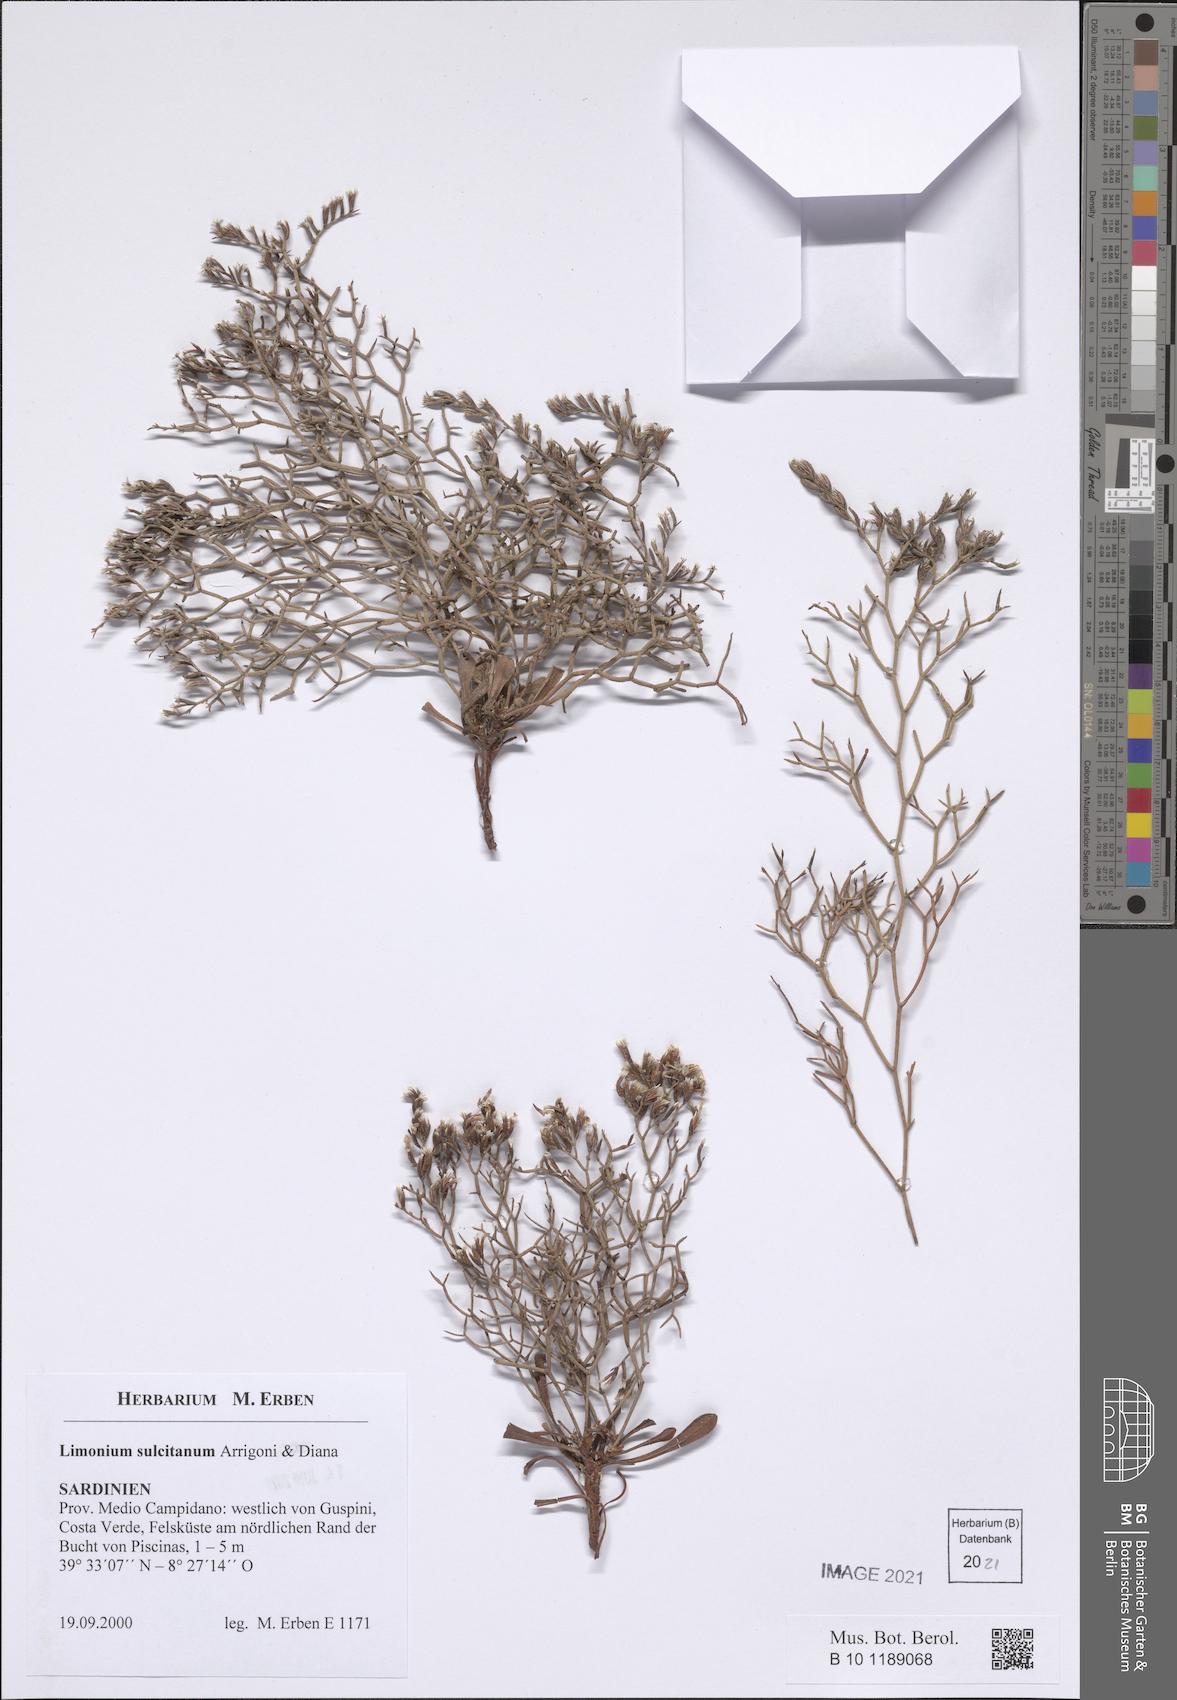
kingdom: Plantae
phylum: Tracheophyta
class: Magnoliopsida
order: Caryophyllales
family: Plumbaginaceae
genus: Limonium
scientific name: Limonium sulcitanum
